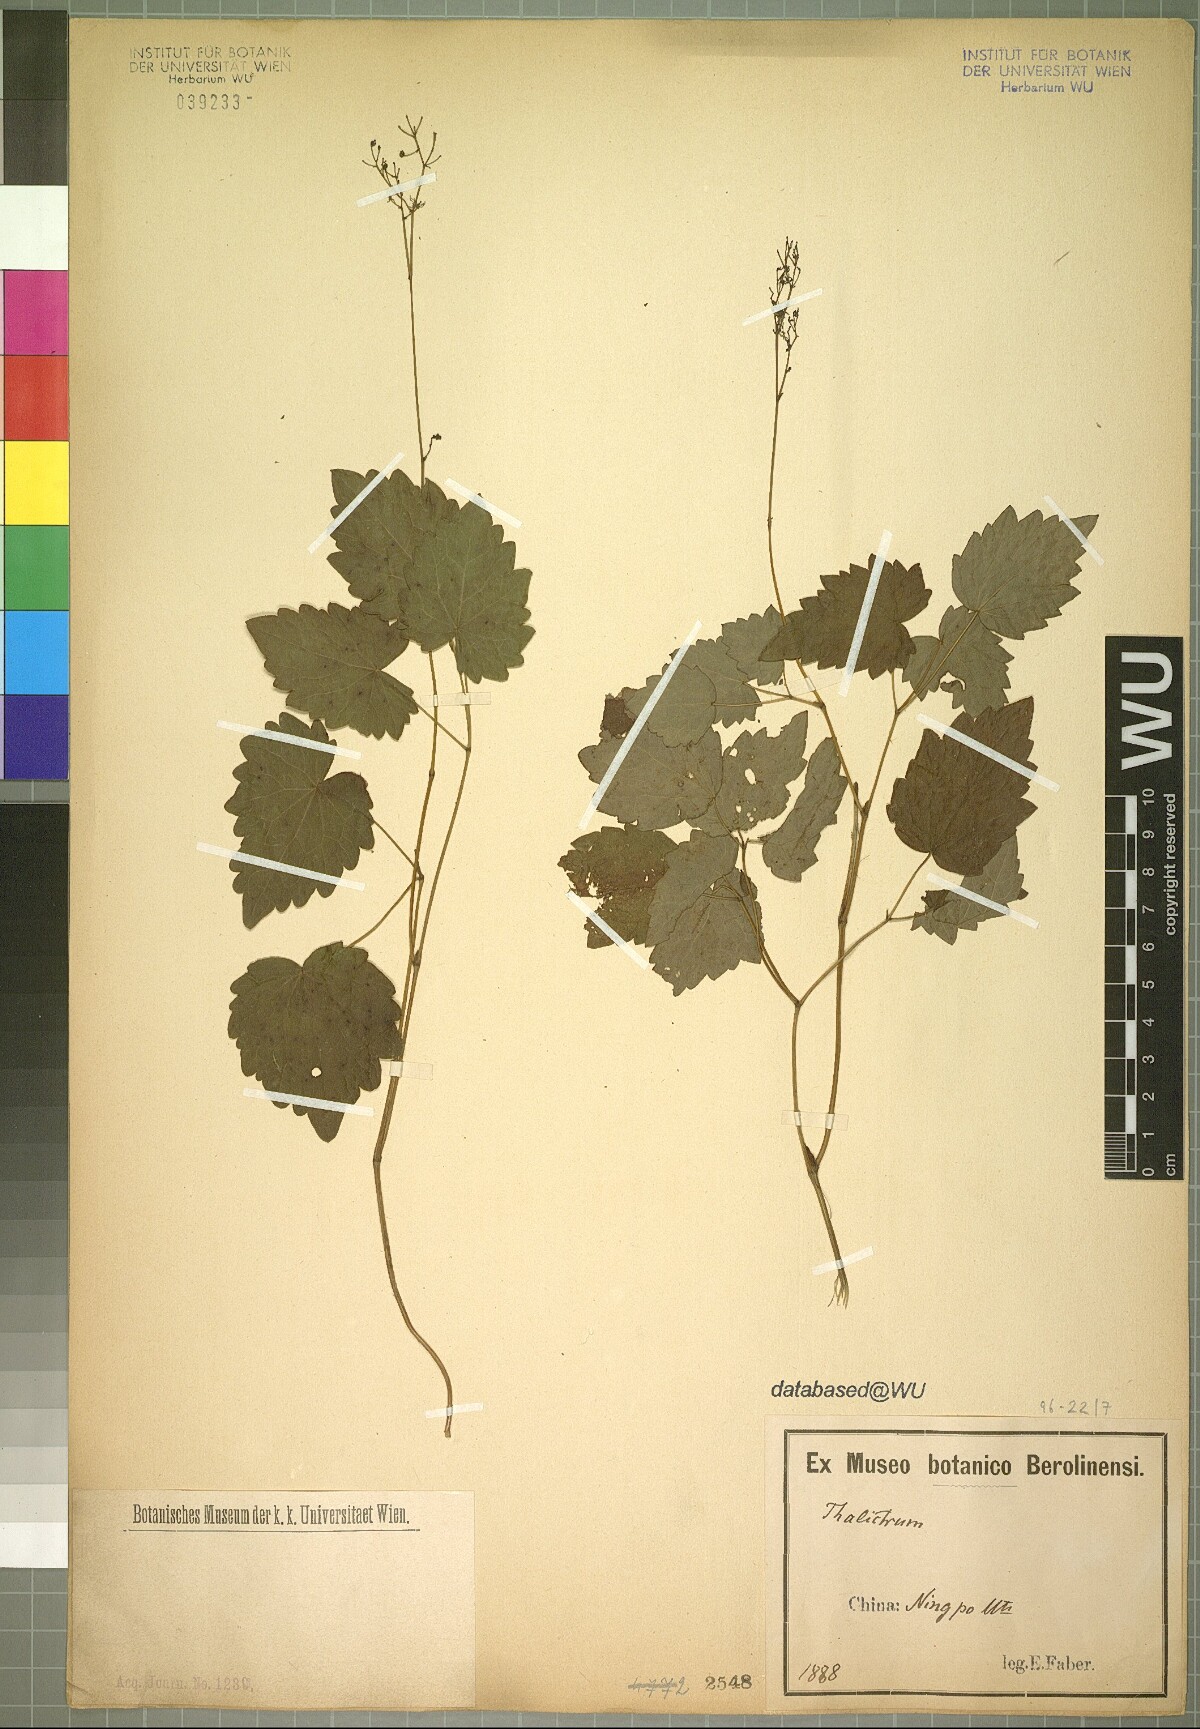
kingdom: Plantae
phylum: Tracheophyta
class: Magnoliopsida
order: Ranunculales
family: Ranunculaceae
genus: Thalictrum
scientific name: Thalictrum
